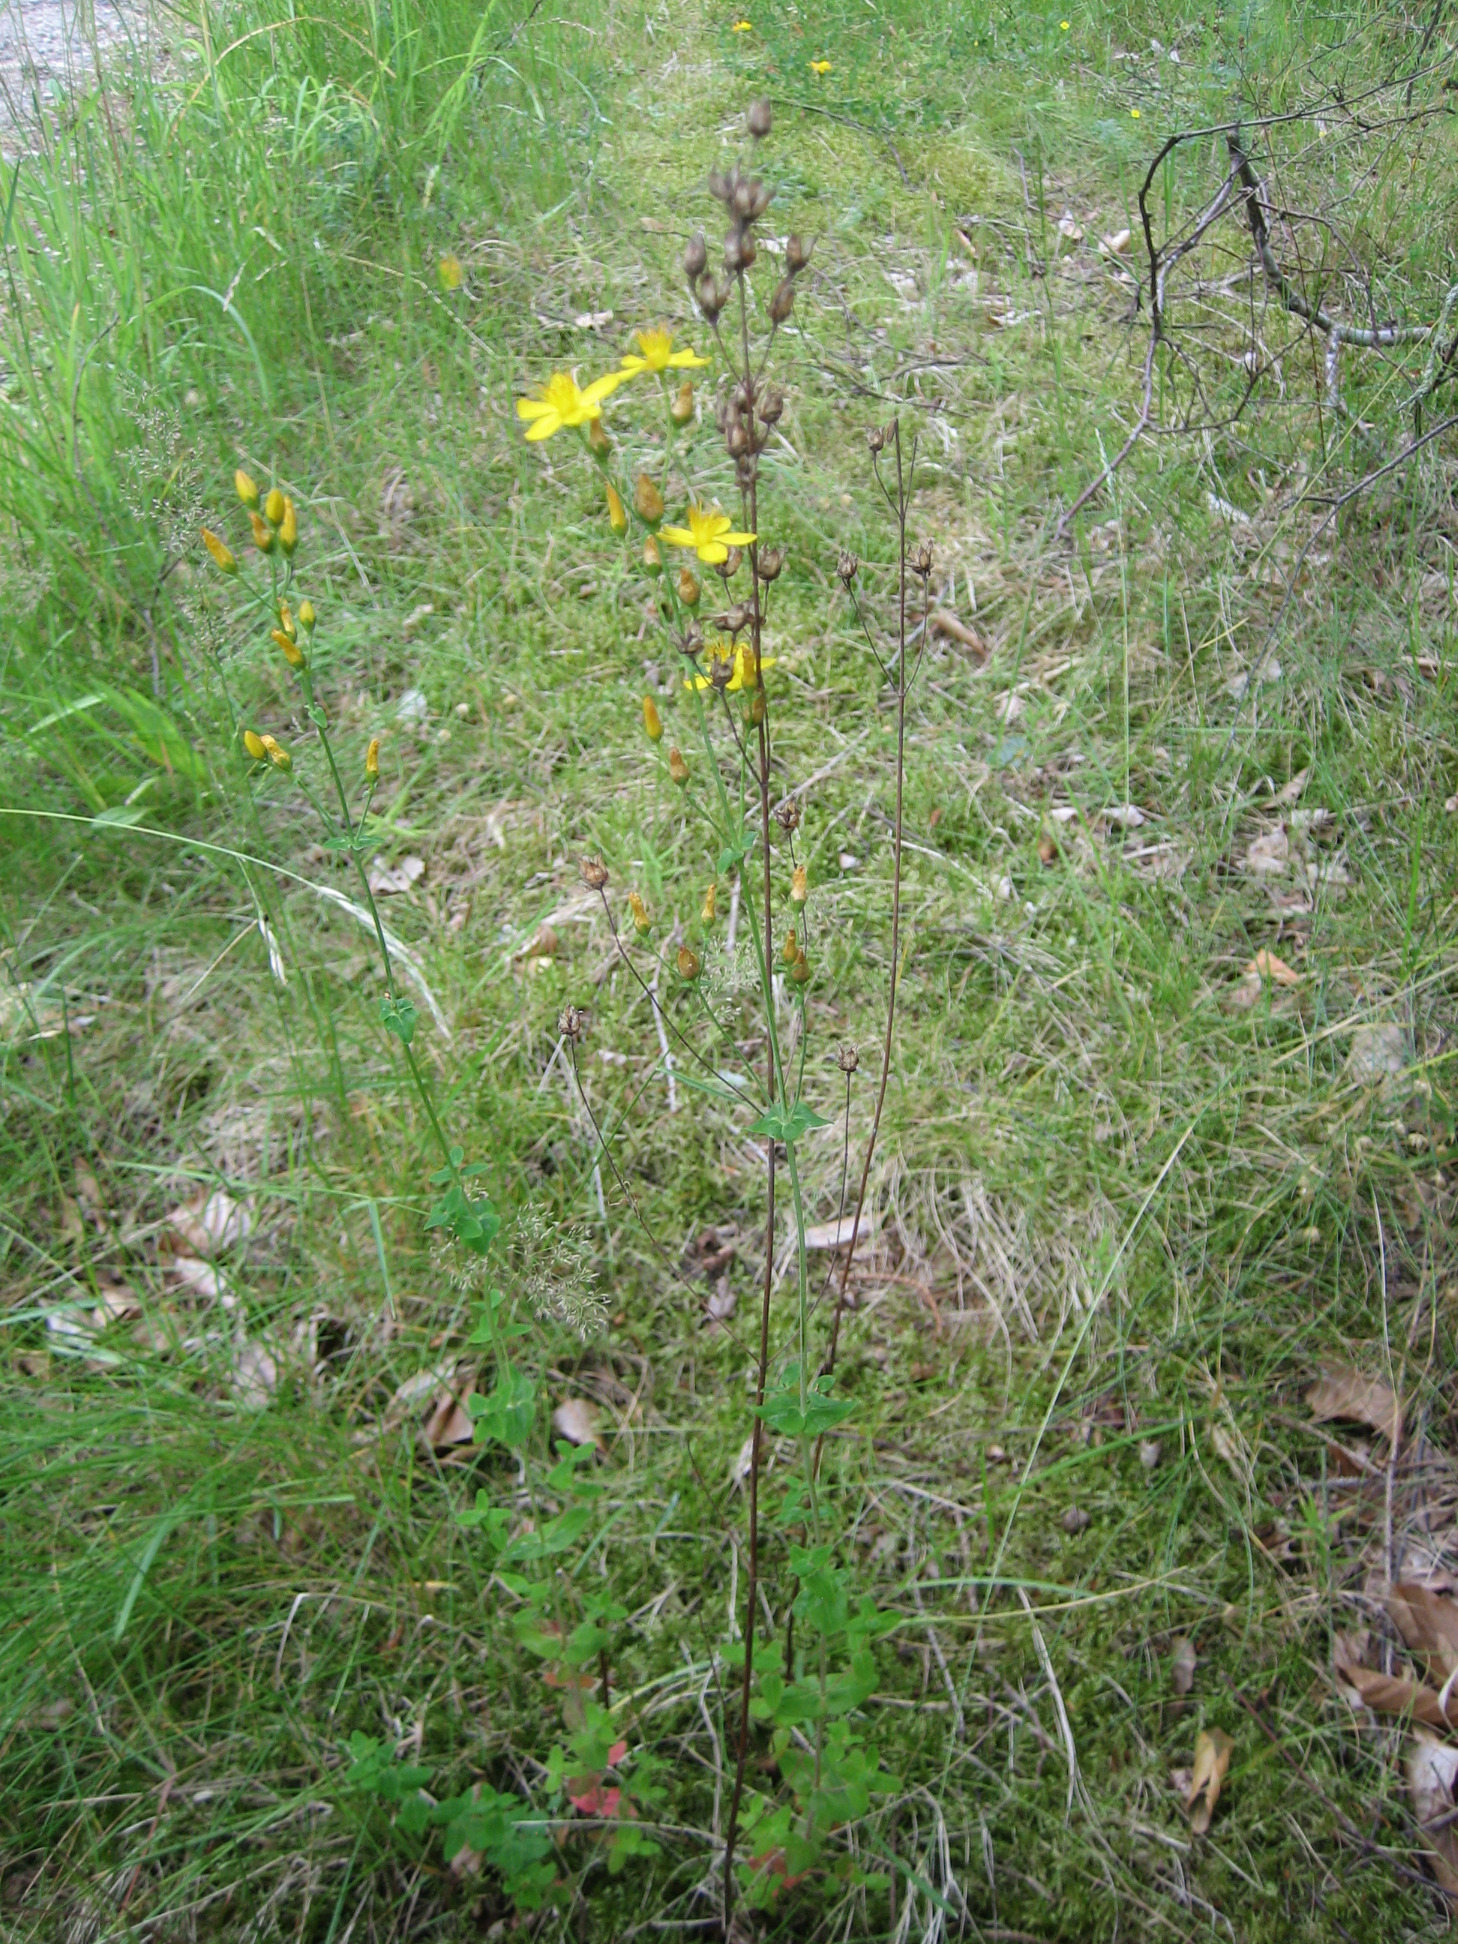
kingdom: Plantae
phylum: Tracheophyta
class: Magnoliopsida
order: Malpighiales
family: Hypericaceae
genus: Hypericum
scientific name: Hypericum pulchrum
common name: Smuk perikon
